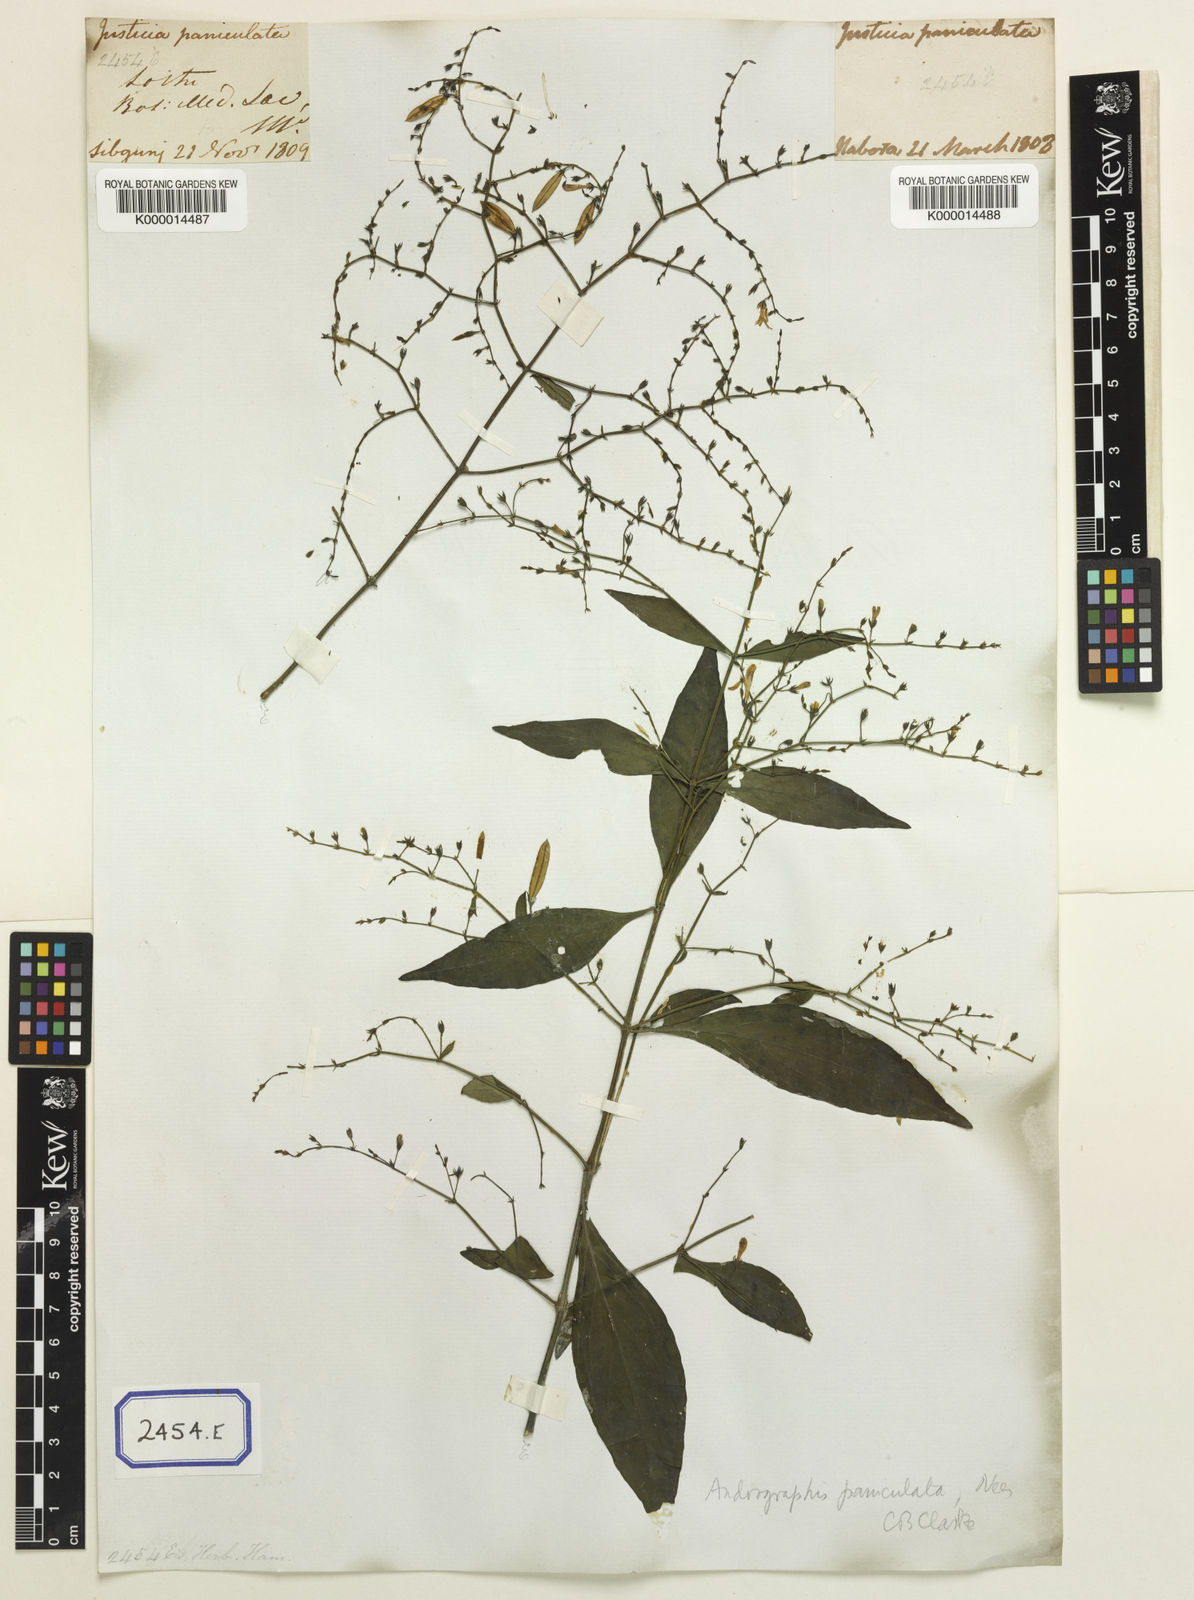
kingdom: Plantae
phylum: Tracheophyta
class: Magnoliopsida
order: Lamiales
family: Acanthaceae
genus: Justicia
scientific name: Justicia
